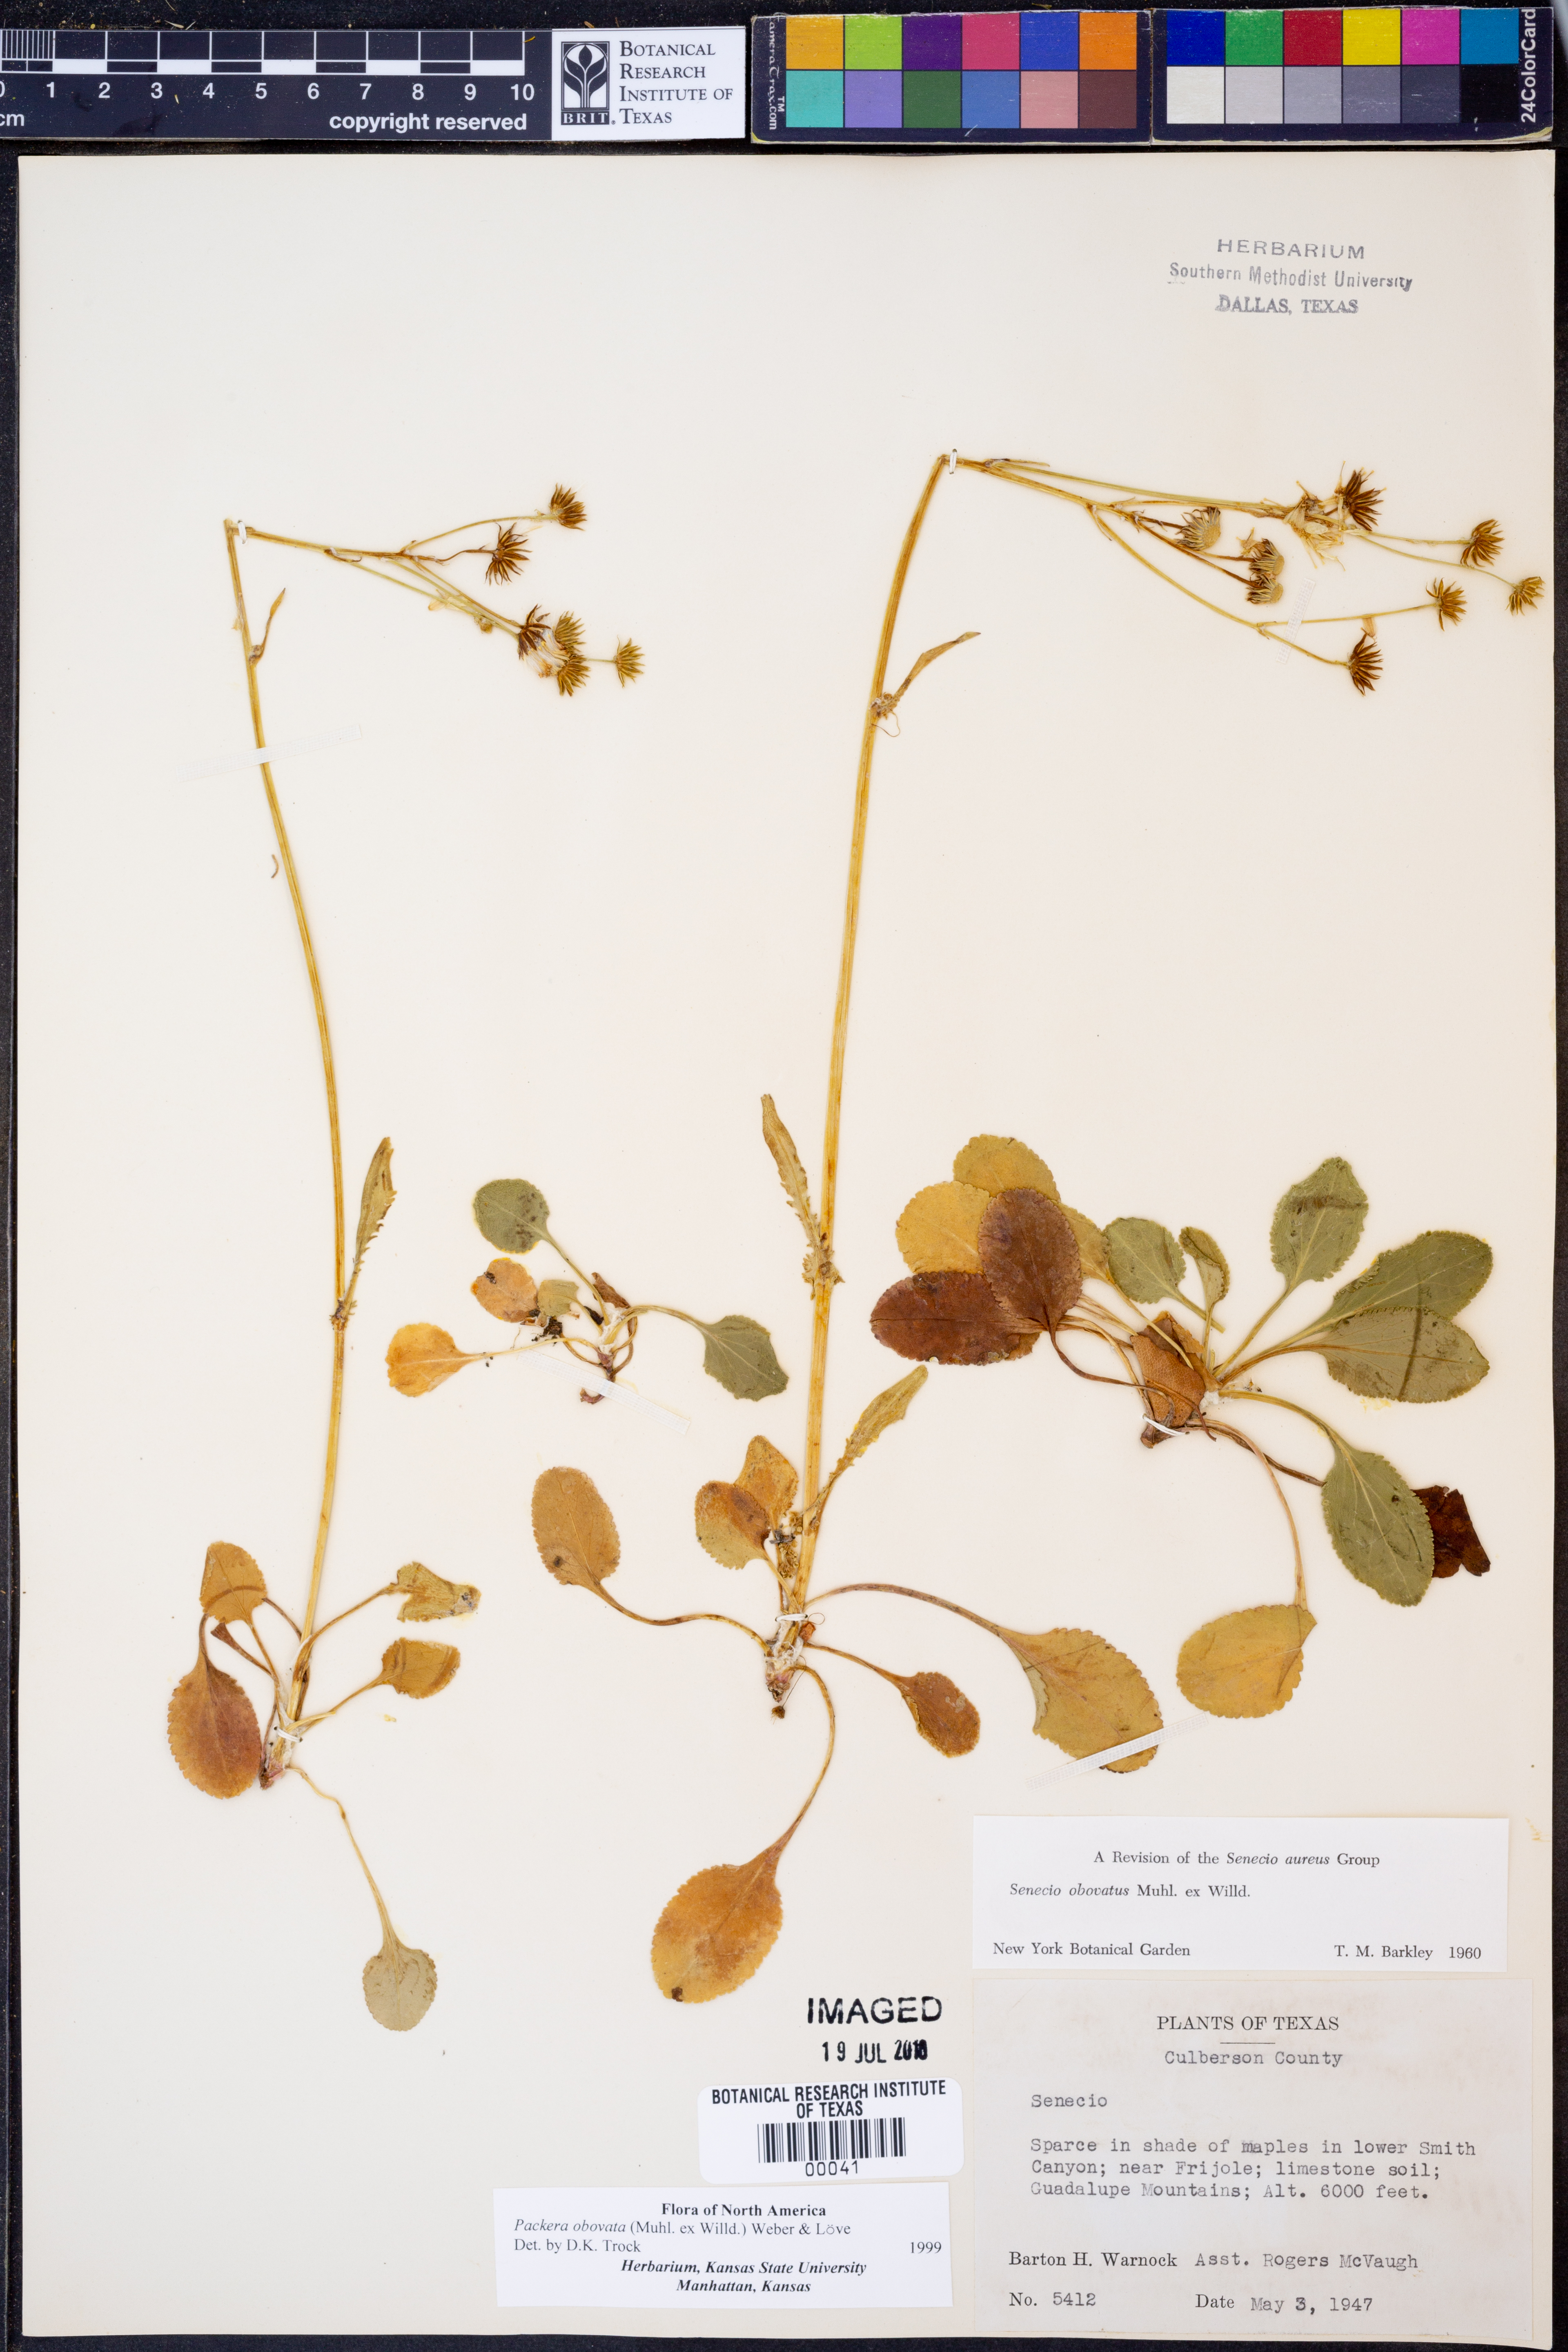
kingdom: Plantae
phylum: Tracheophyta
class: Magnoliopsida
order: Asterales
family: Asteraceae
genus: Senecio
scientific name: Senecio provincialis
